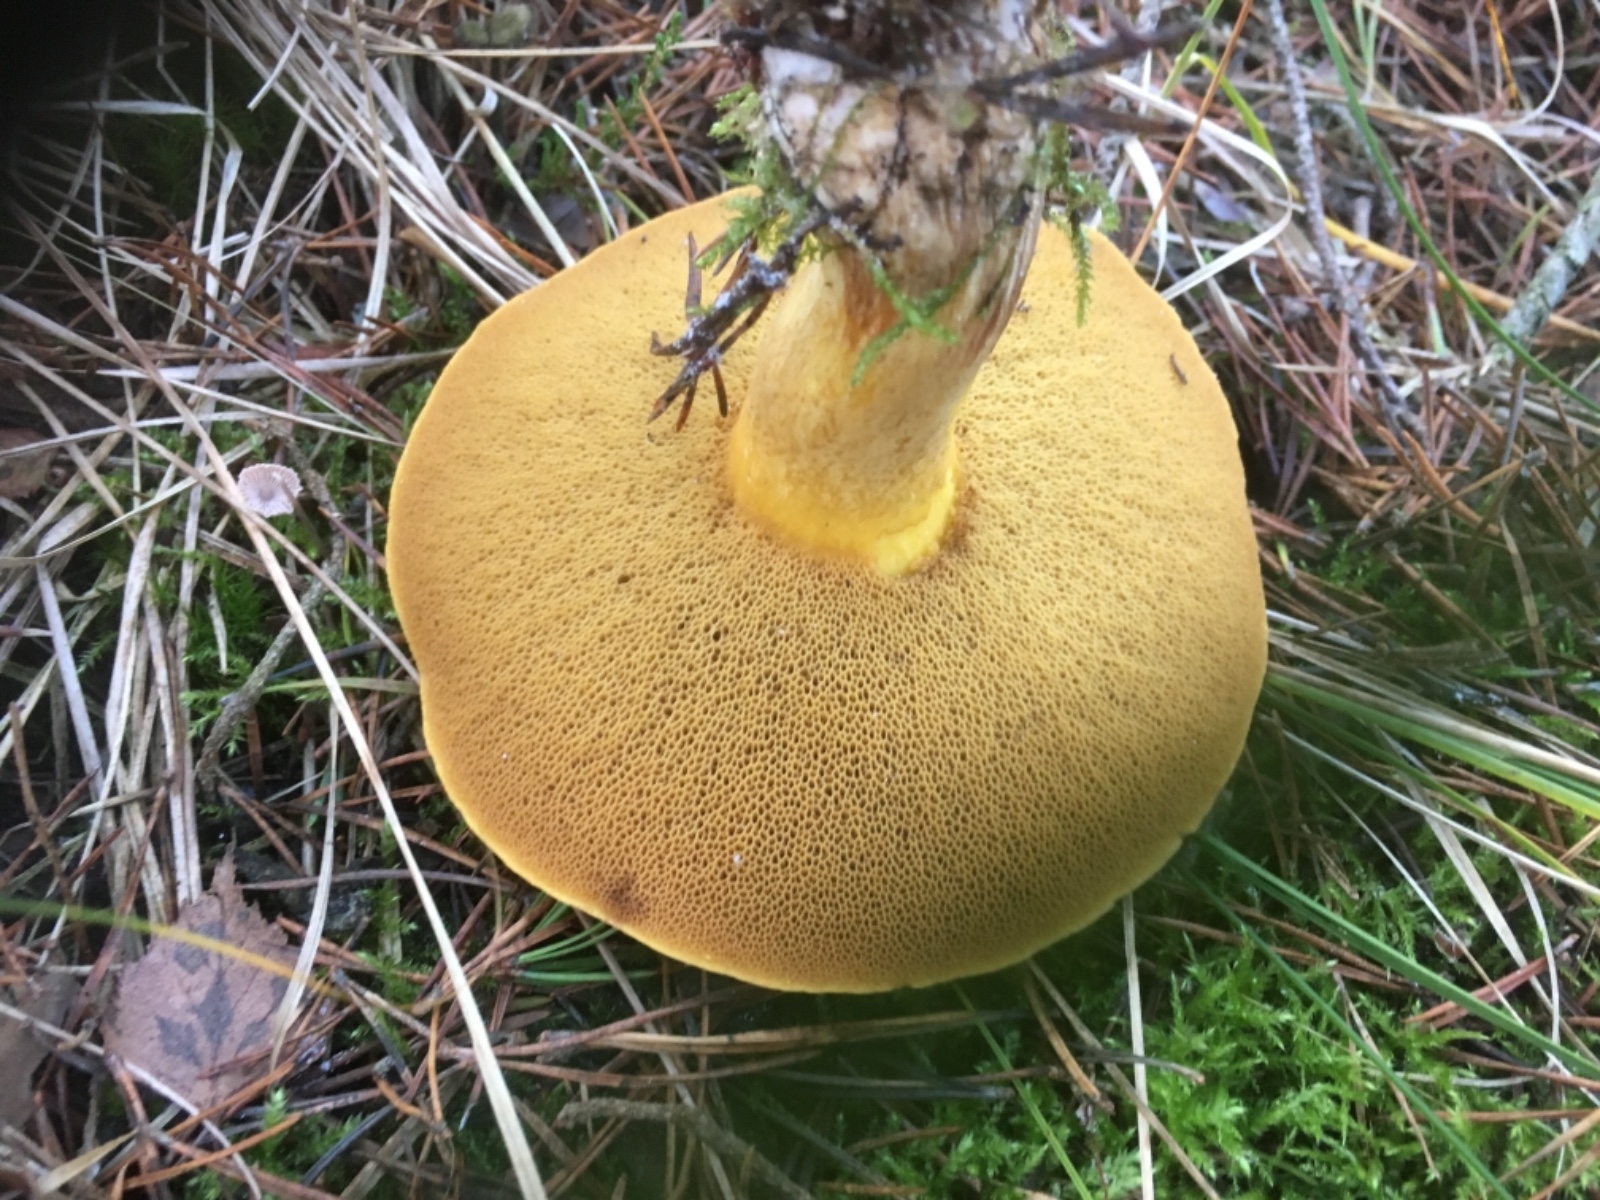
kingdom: Fungi
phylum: Basidiomycota
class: Agaricomycetes
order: Boletales
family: Suillaceae
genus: Suillus
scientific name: Suillus variegatus
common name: broget slimrørhat
